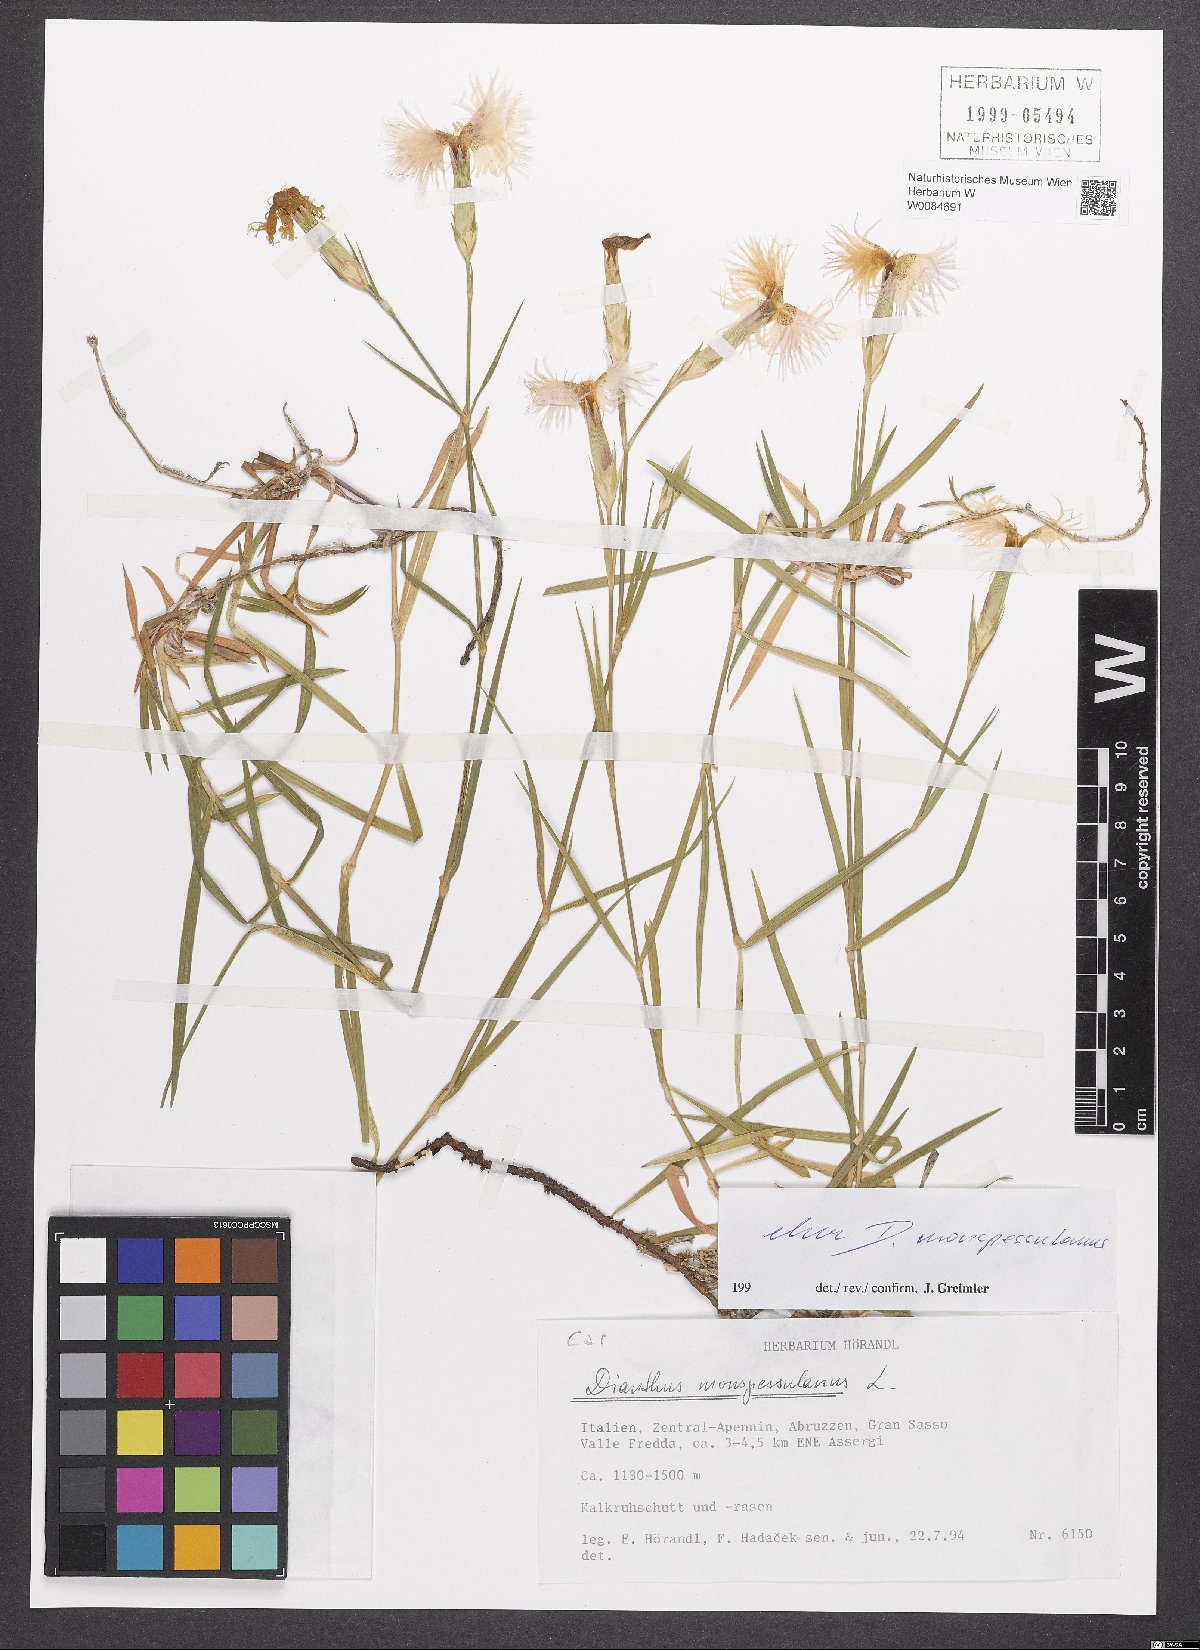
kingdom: Plantae
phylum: Tracheophyta
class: Magnoliopsida
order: Caryophyllales
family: Caryophyllaceae
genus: Dianthus
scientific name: Dianthus hyssopifolius
